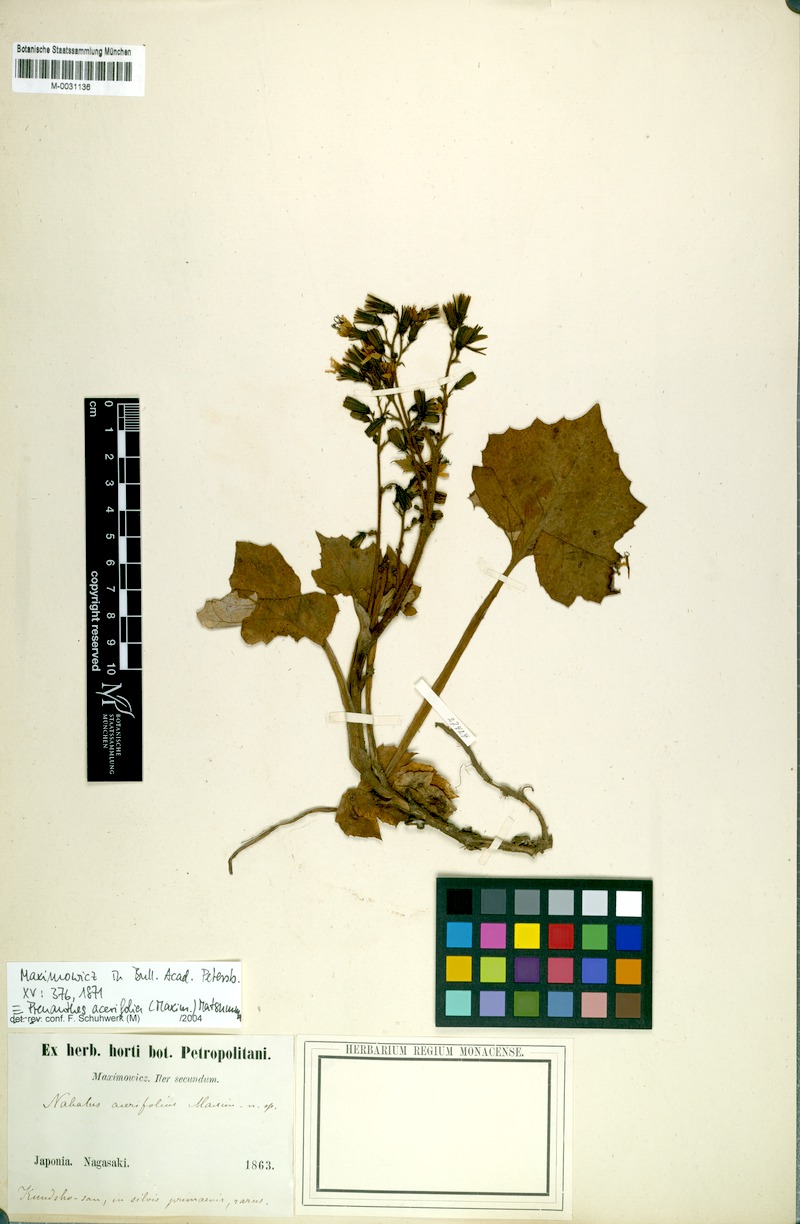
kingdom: Plantae
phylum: Tracheophyta
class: Magnoliopsida
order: Asterales
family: Asteraceae
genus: Nabalus
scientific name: Nabalus acerifolius
